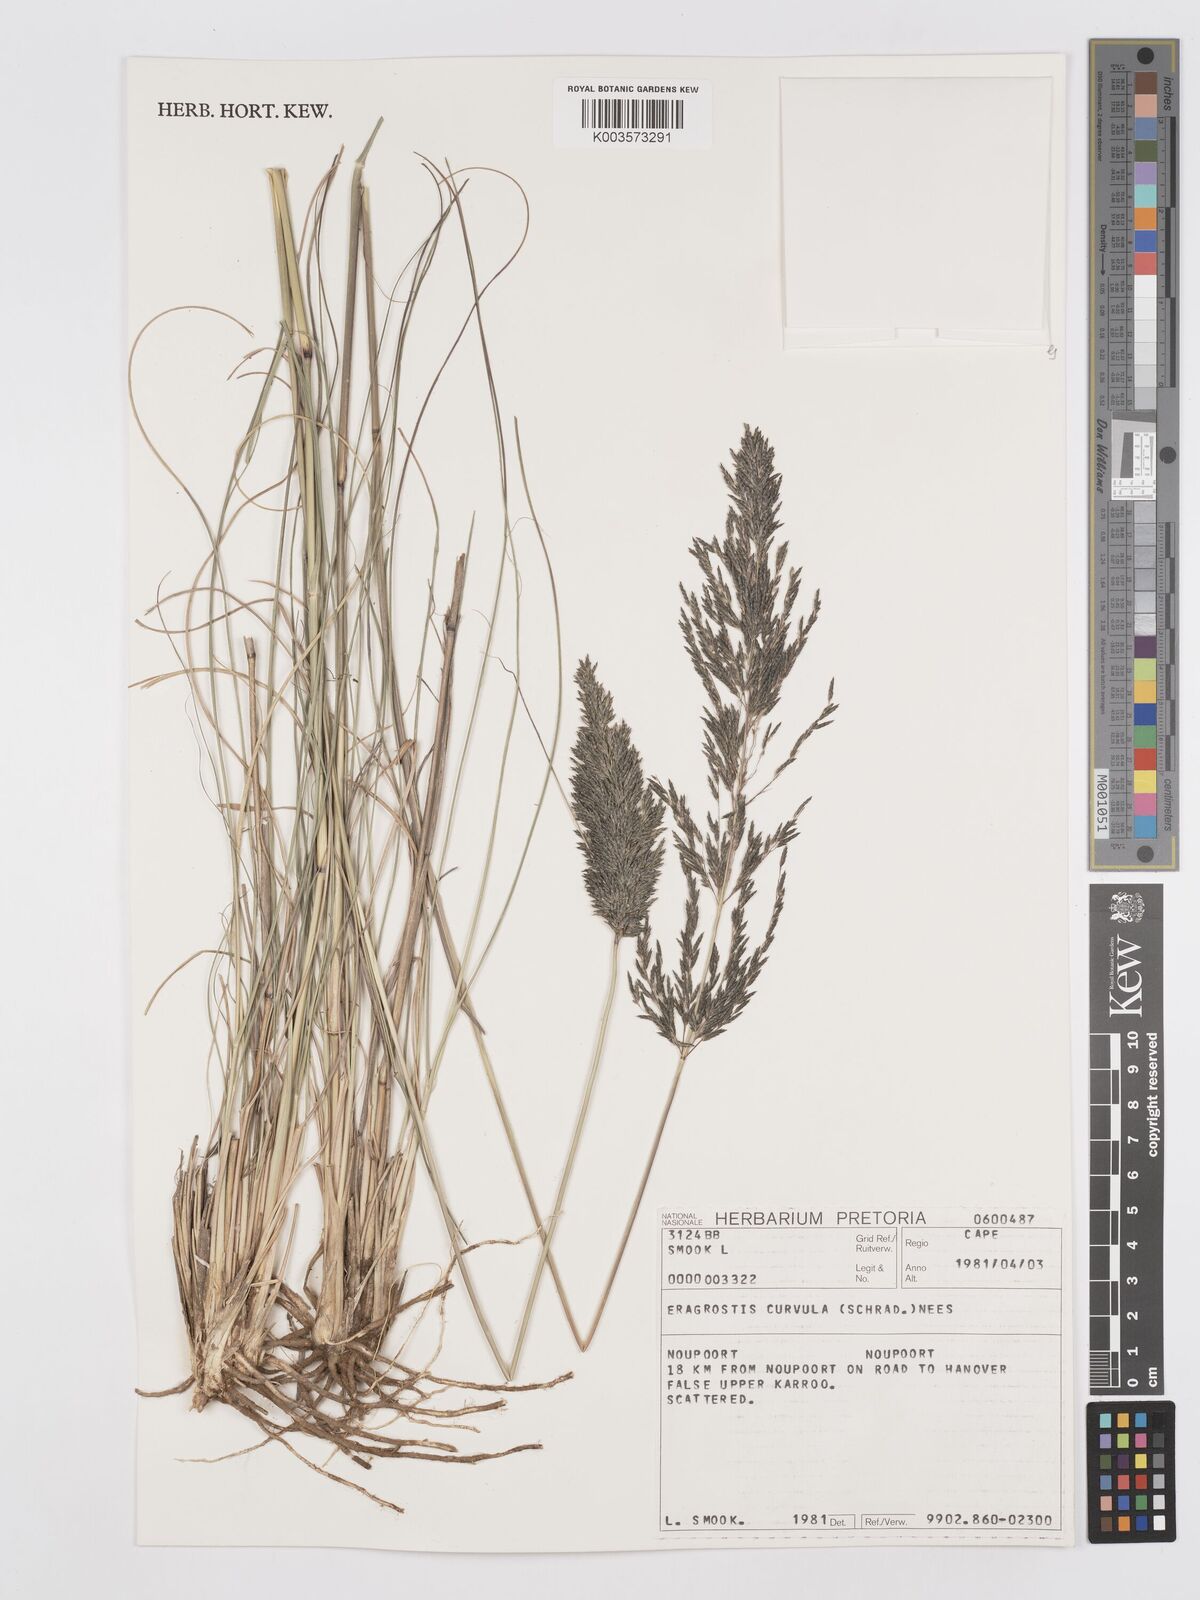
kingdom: Plantae
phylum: Tracheophyta
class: Liliopsida
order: Poales
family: Poaceae
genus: Eragrostis
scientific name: Eragrostis curvula
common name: African love-grass
